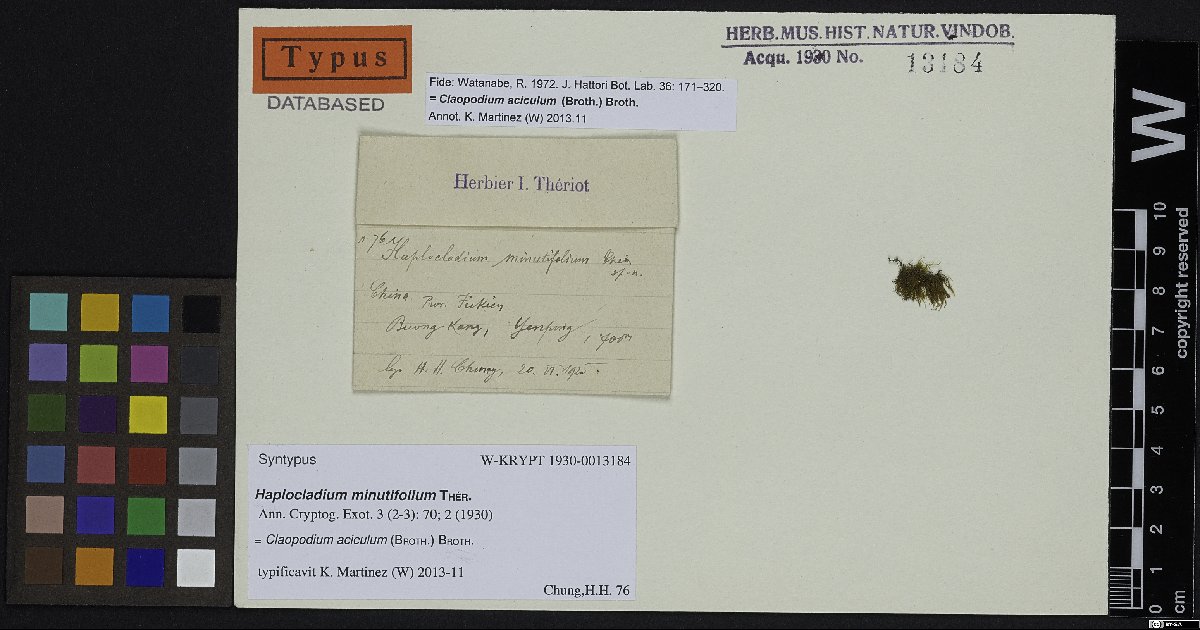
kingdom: Plantae
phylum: Bryophyta
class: Bryopsida
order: Hypnales
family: Brachytheciaceae
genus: Claopodium
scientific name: Claopodium aciculum
